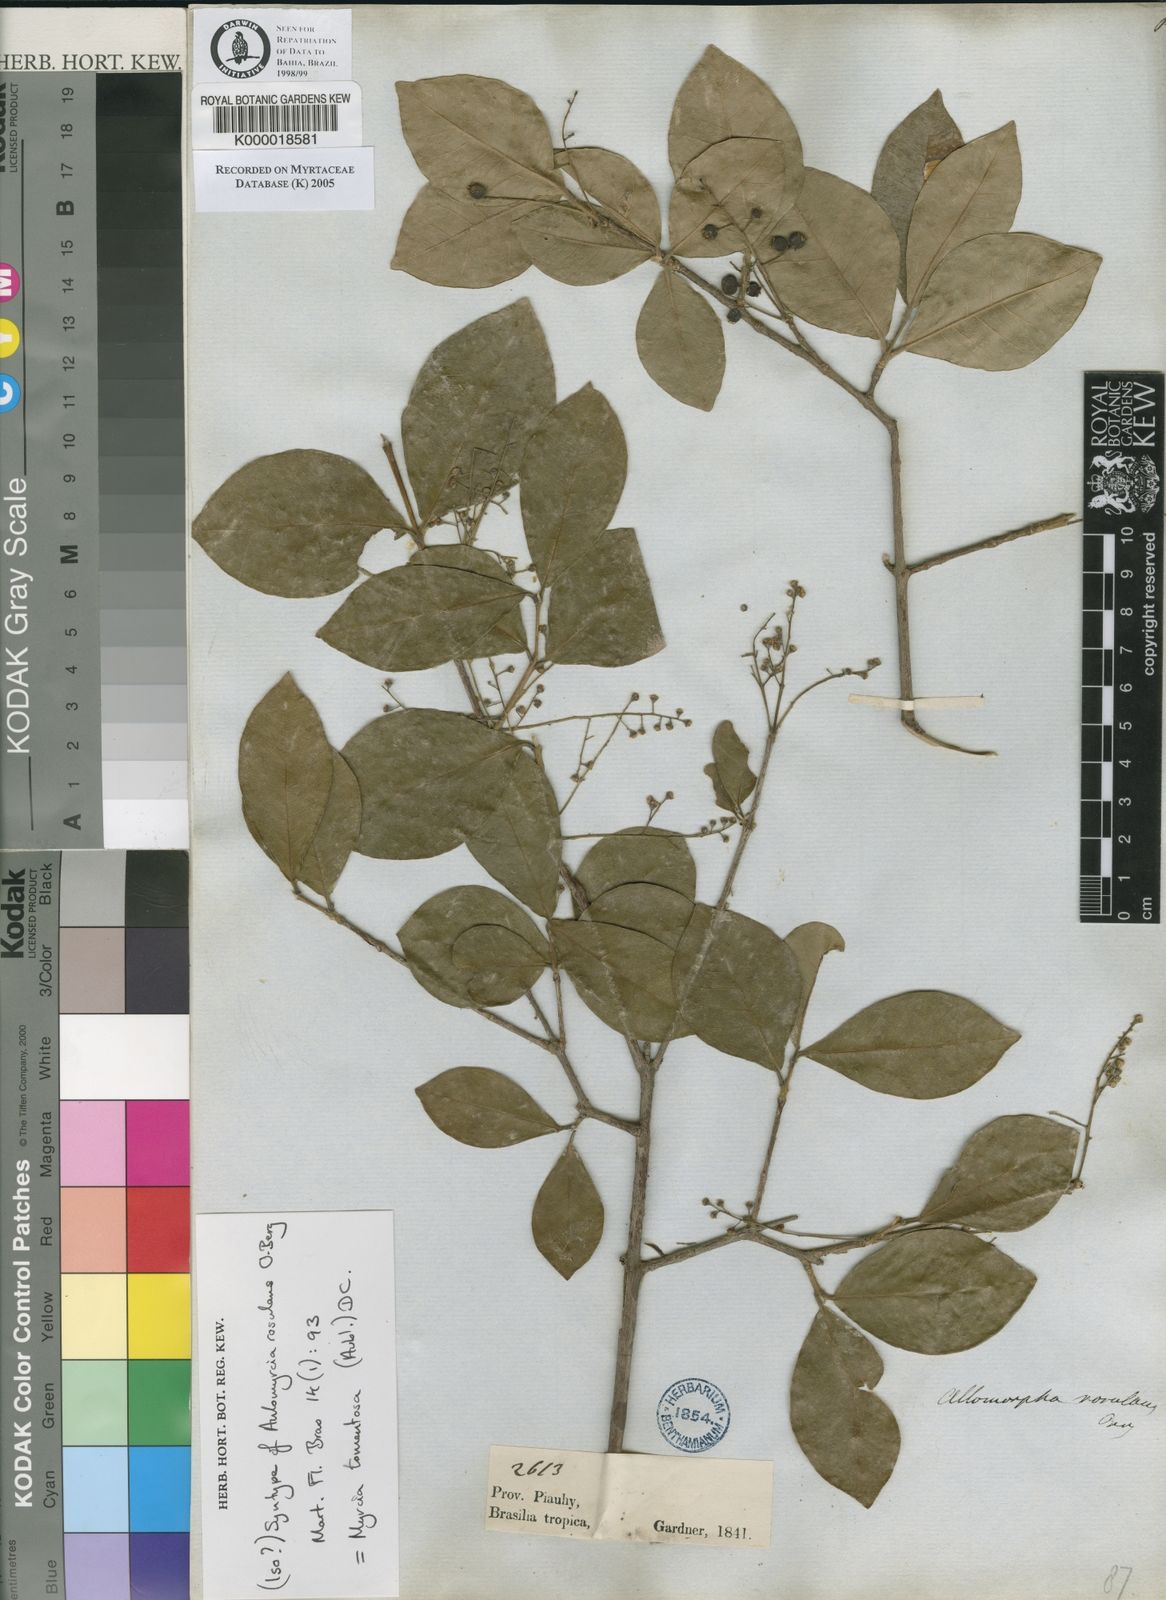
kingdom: Plantae
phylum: Tracheophyta
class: Magnoliopsida
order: Myrtales
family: Myrtaceae
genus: Myrcia
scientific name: Myrcia tomentosa
